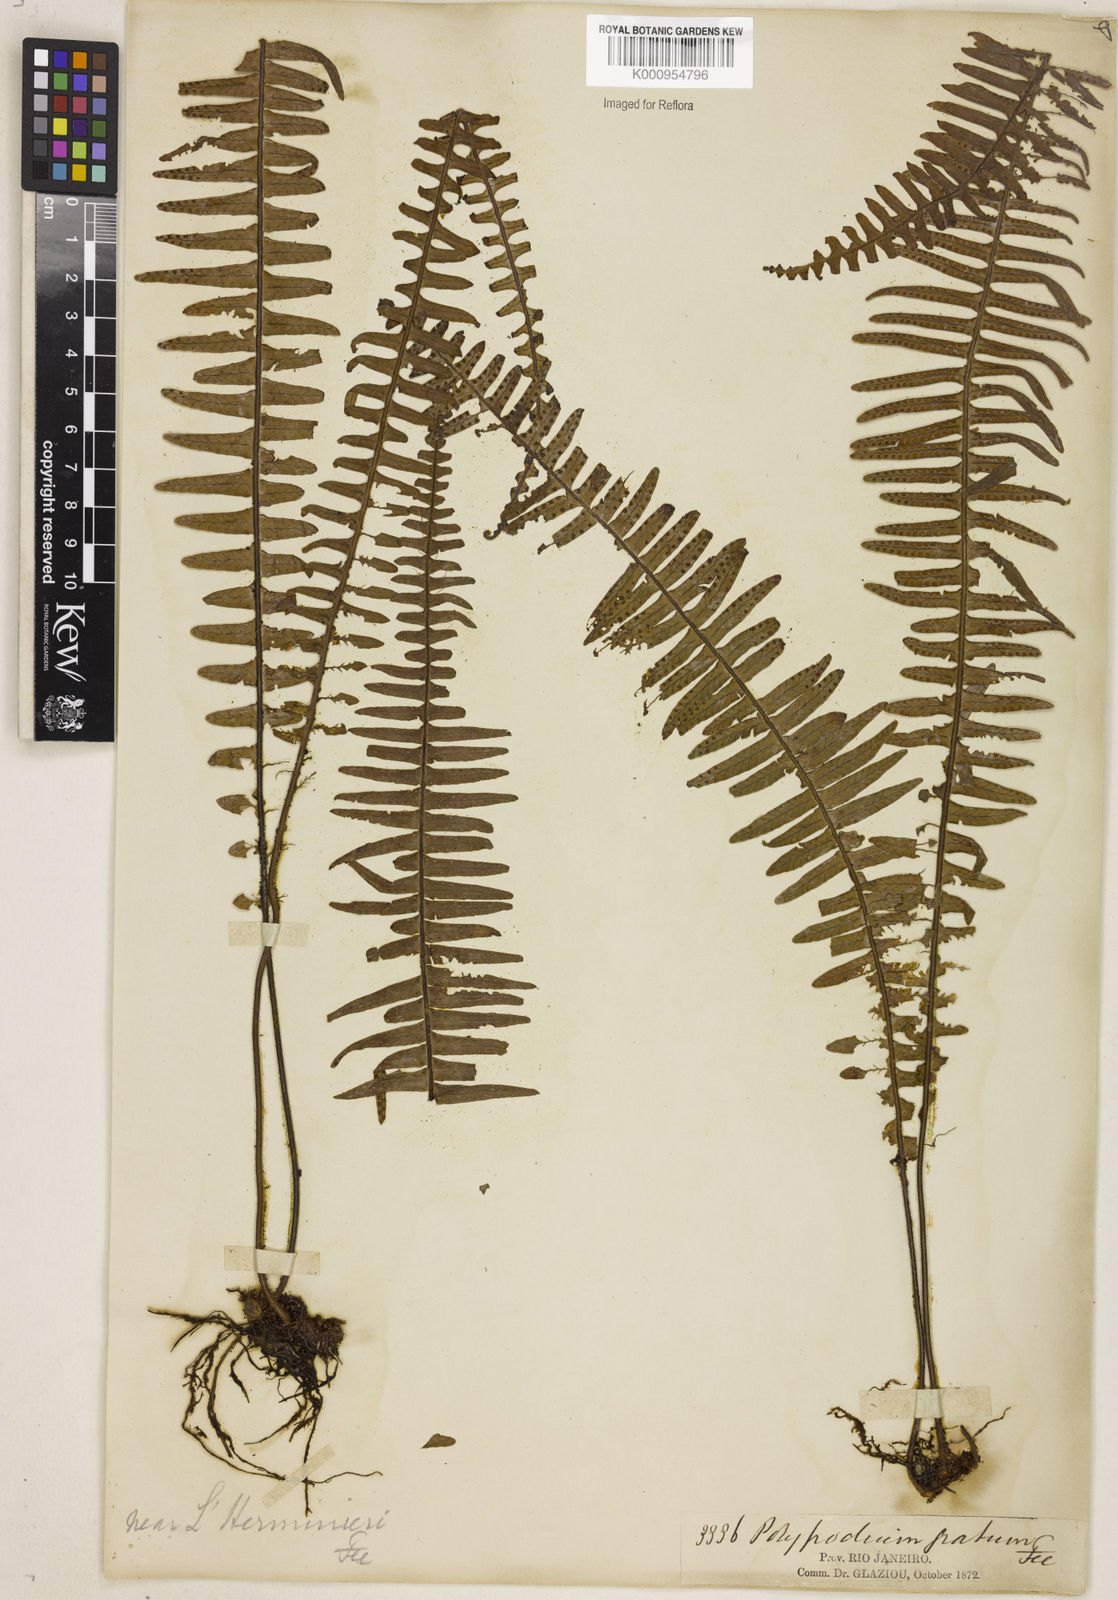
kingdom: Plantae
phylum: Tracheophyta
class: Polypodiopsida
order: Polypodiales
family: Polypodiaceae
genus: Pecluma
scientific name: Pecluma
